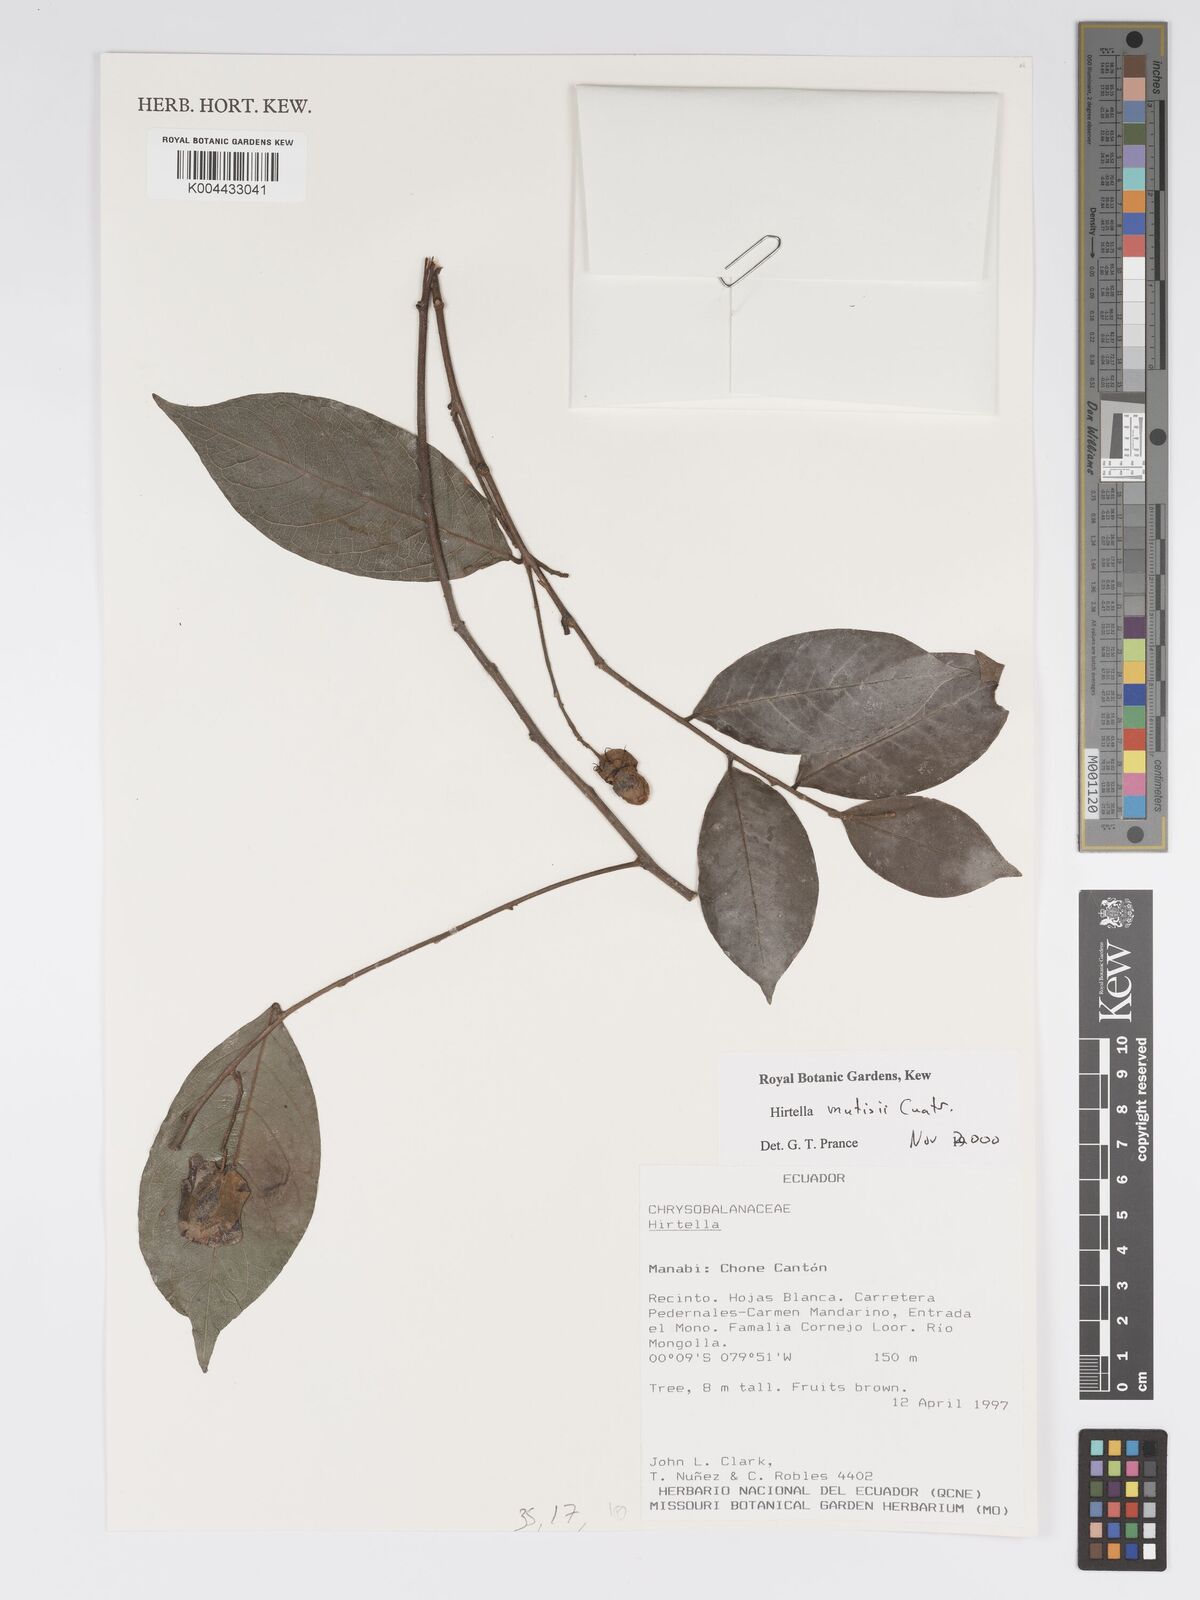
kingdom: Plantae
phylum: Tracheophyta
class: Magnoliopsida
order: Malpighiales
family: Chrysobalanaceae
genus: Hirtella
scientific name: Hirtella mutisii
